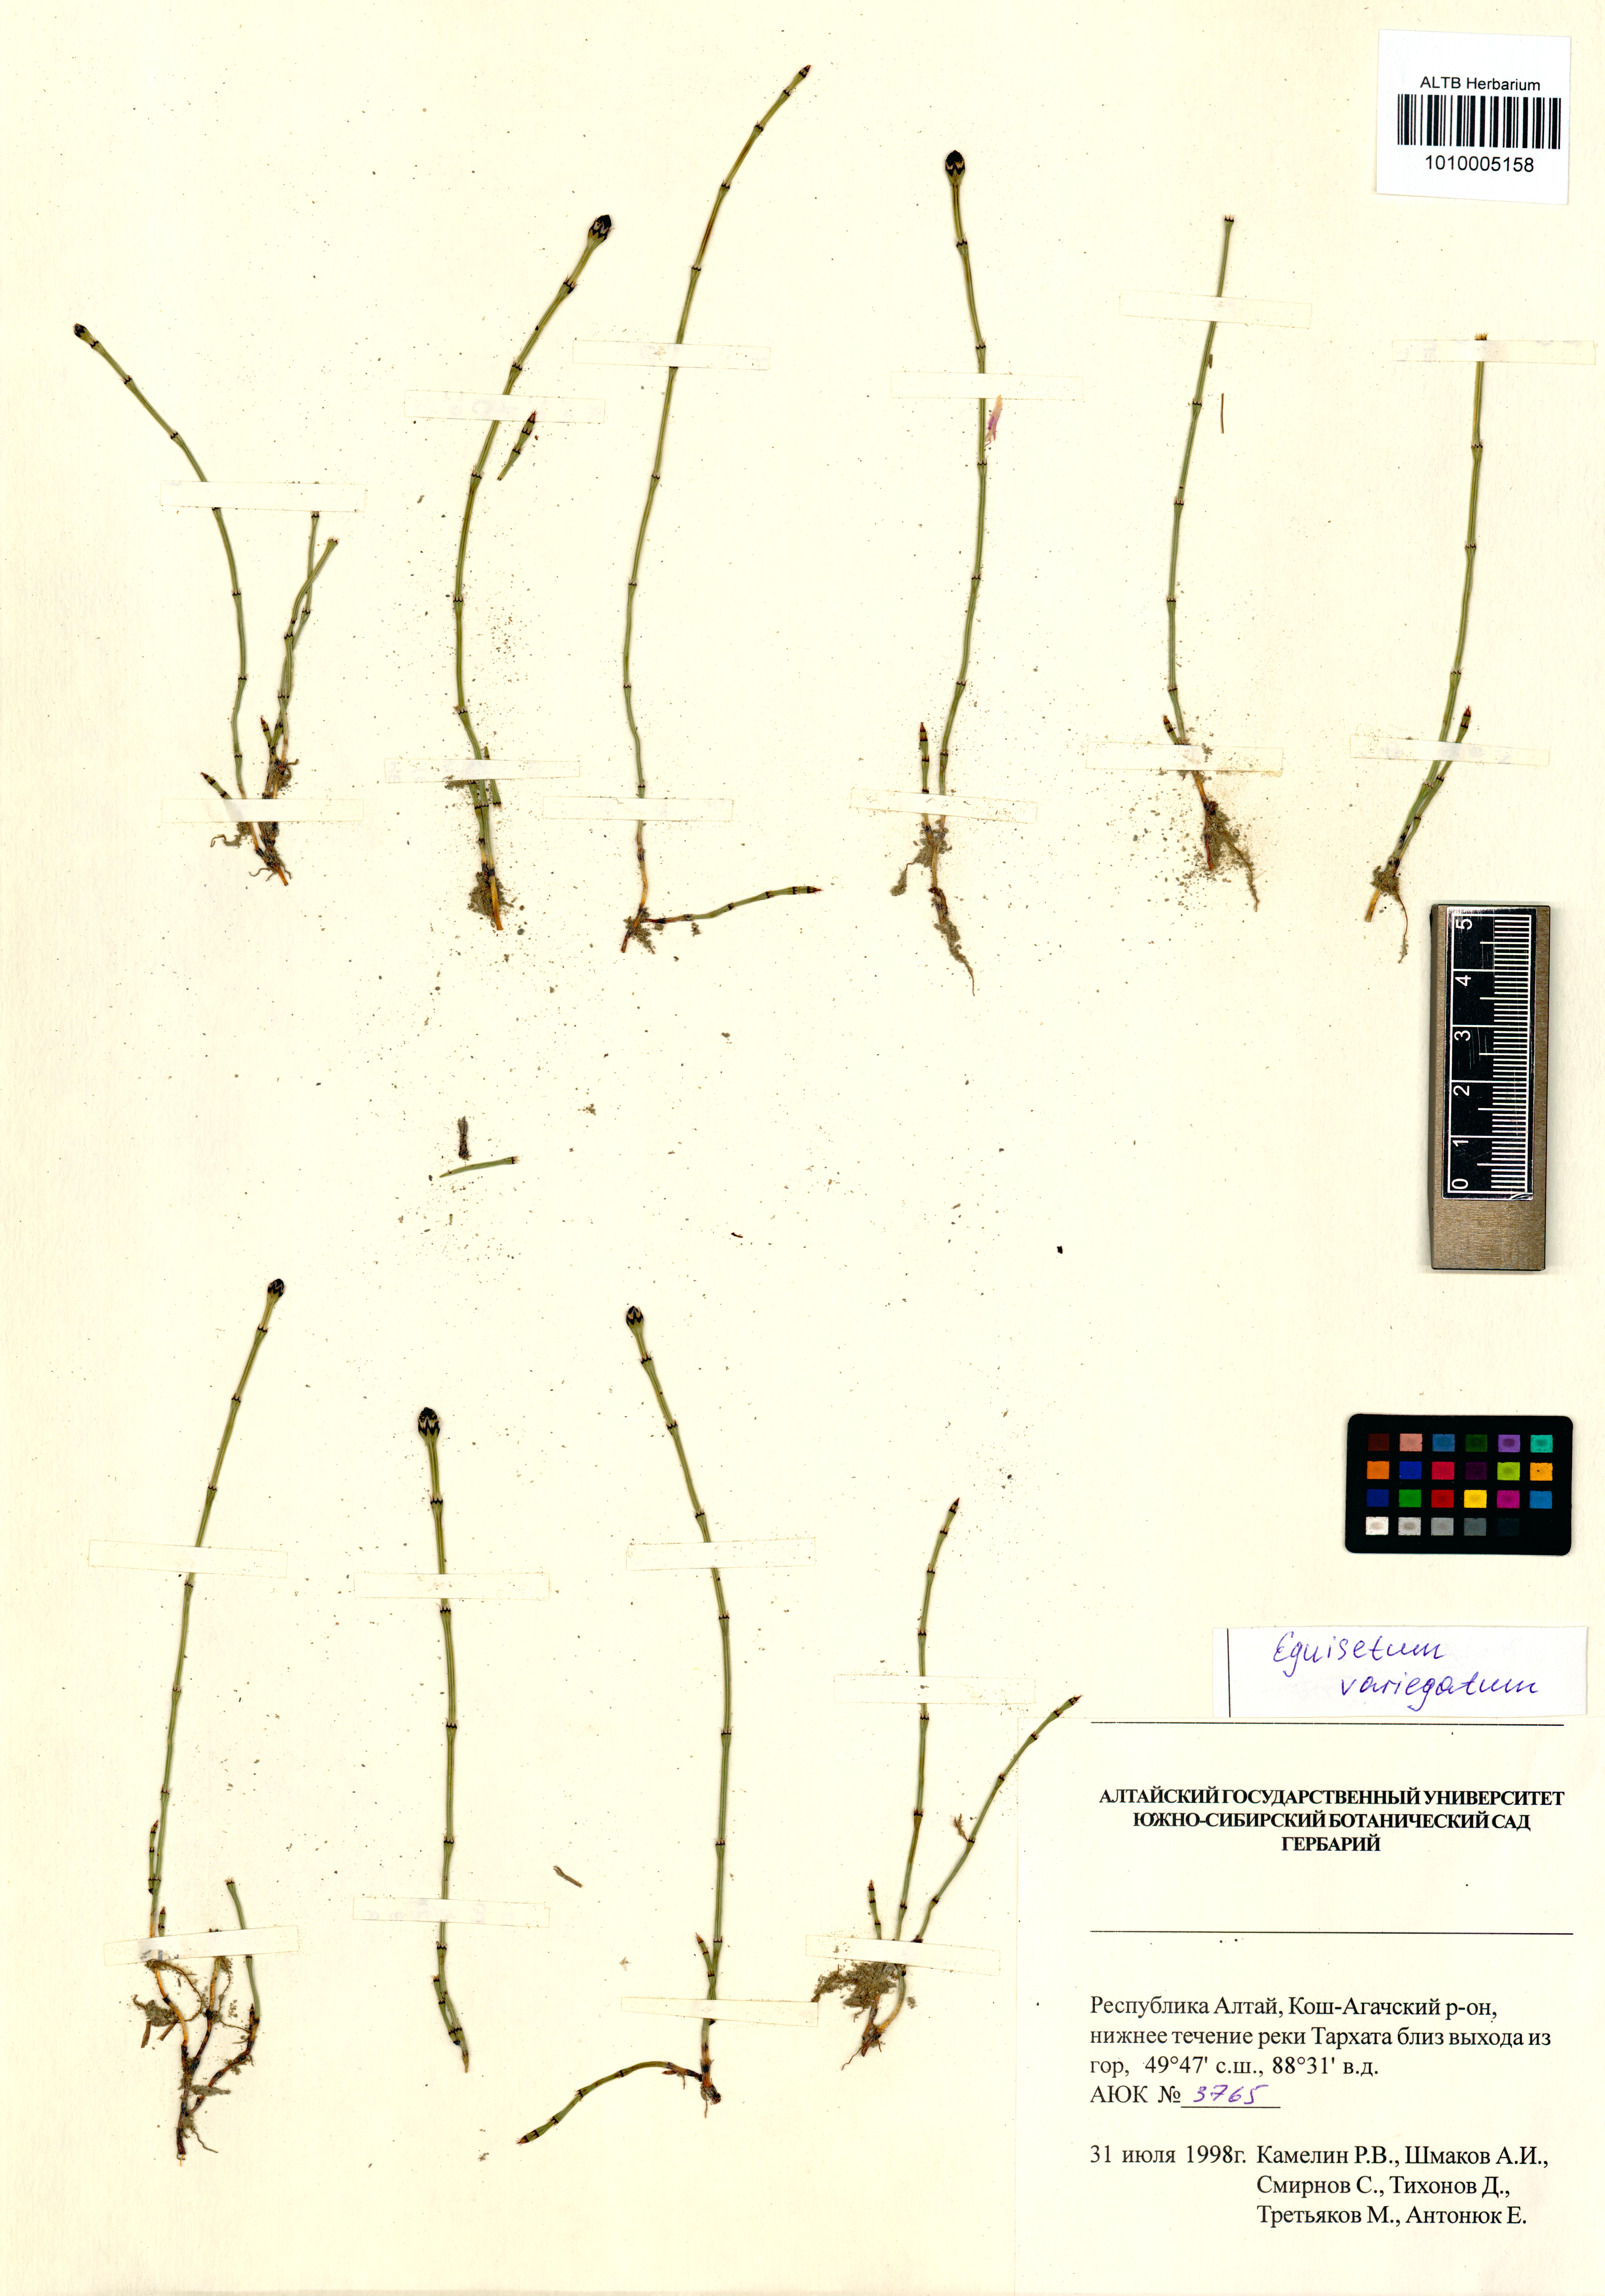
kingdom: Plantae
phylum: Tracheophyta
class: Polypodiopsida
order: Equisetales
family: Equisetaceae
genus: Equisetum
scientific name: Equisetum variegatum
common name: Variegated horsetail
